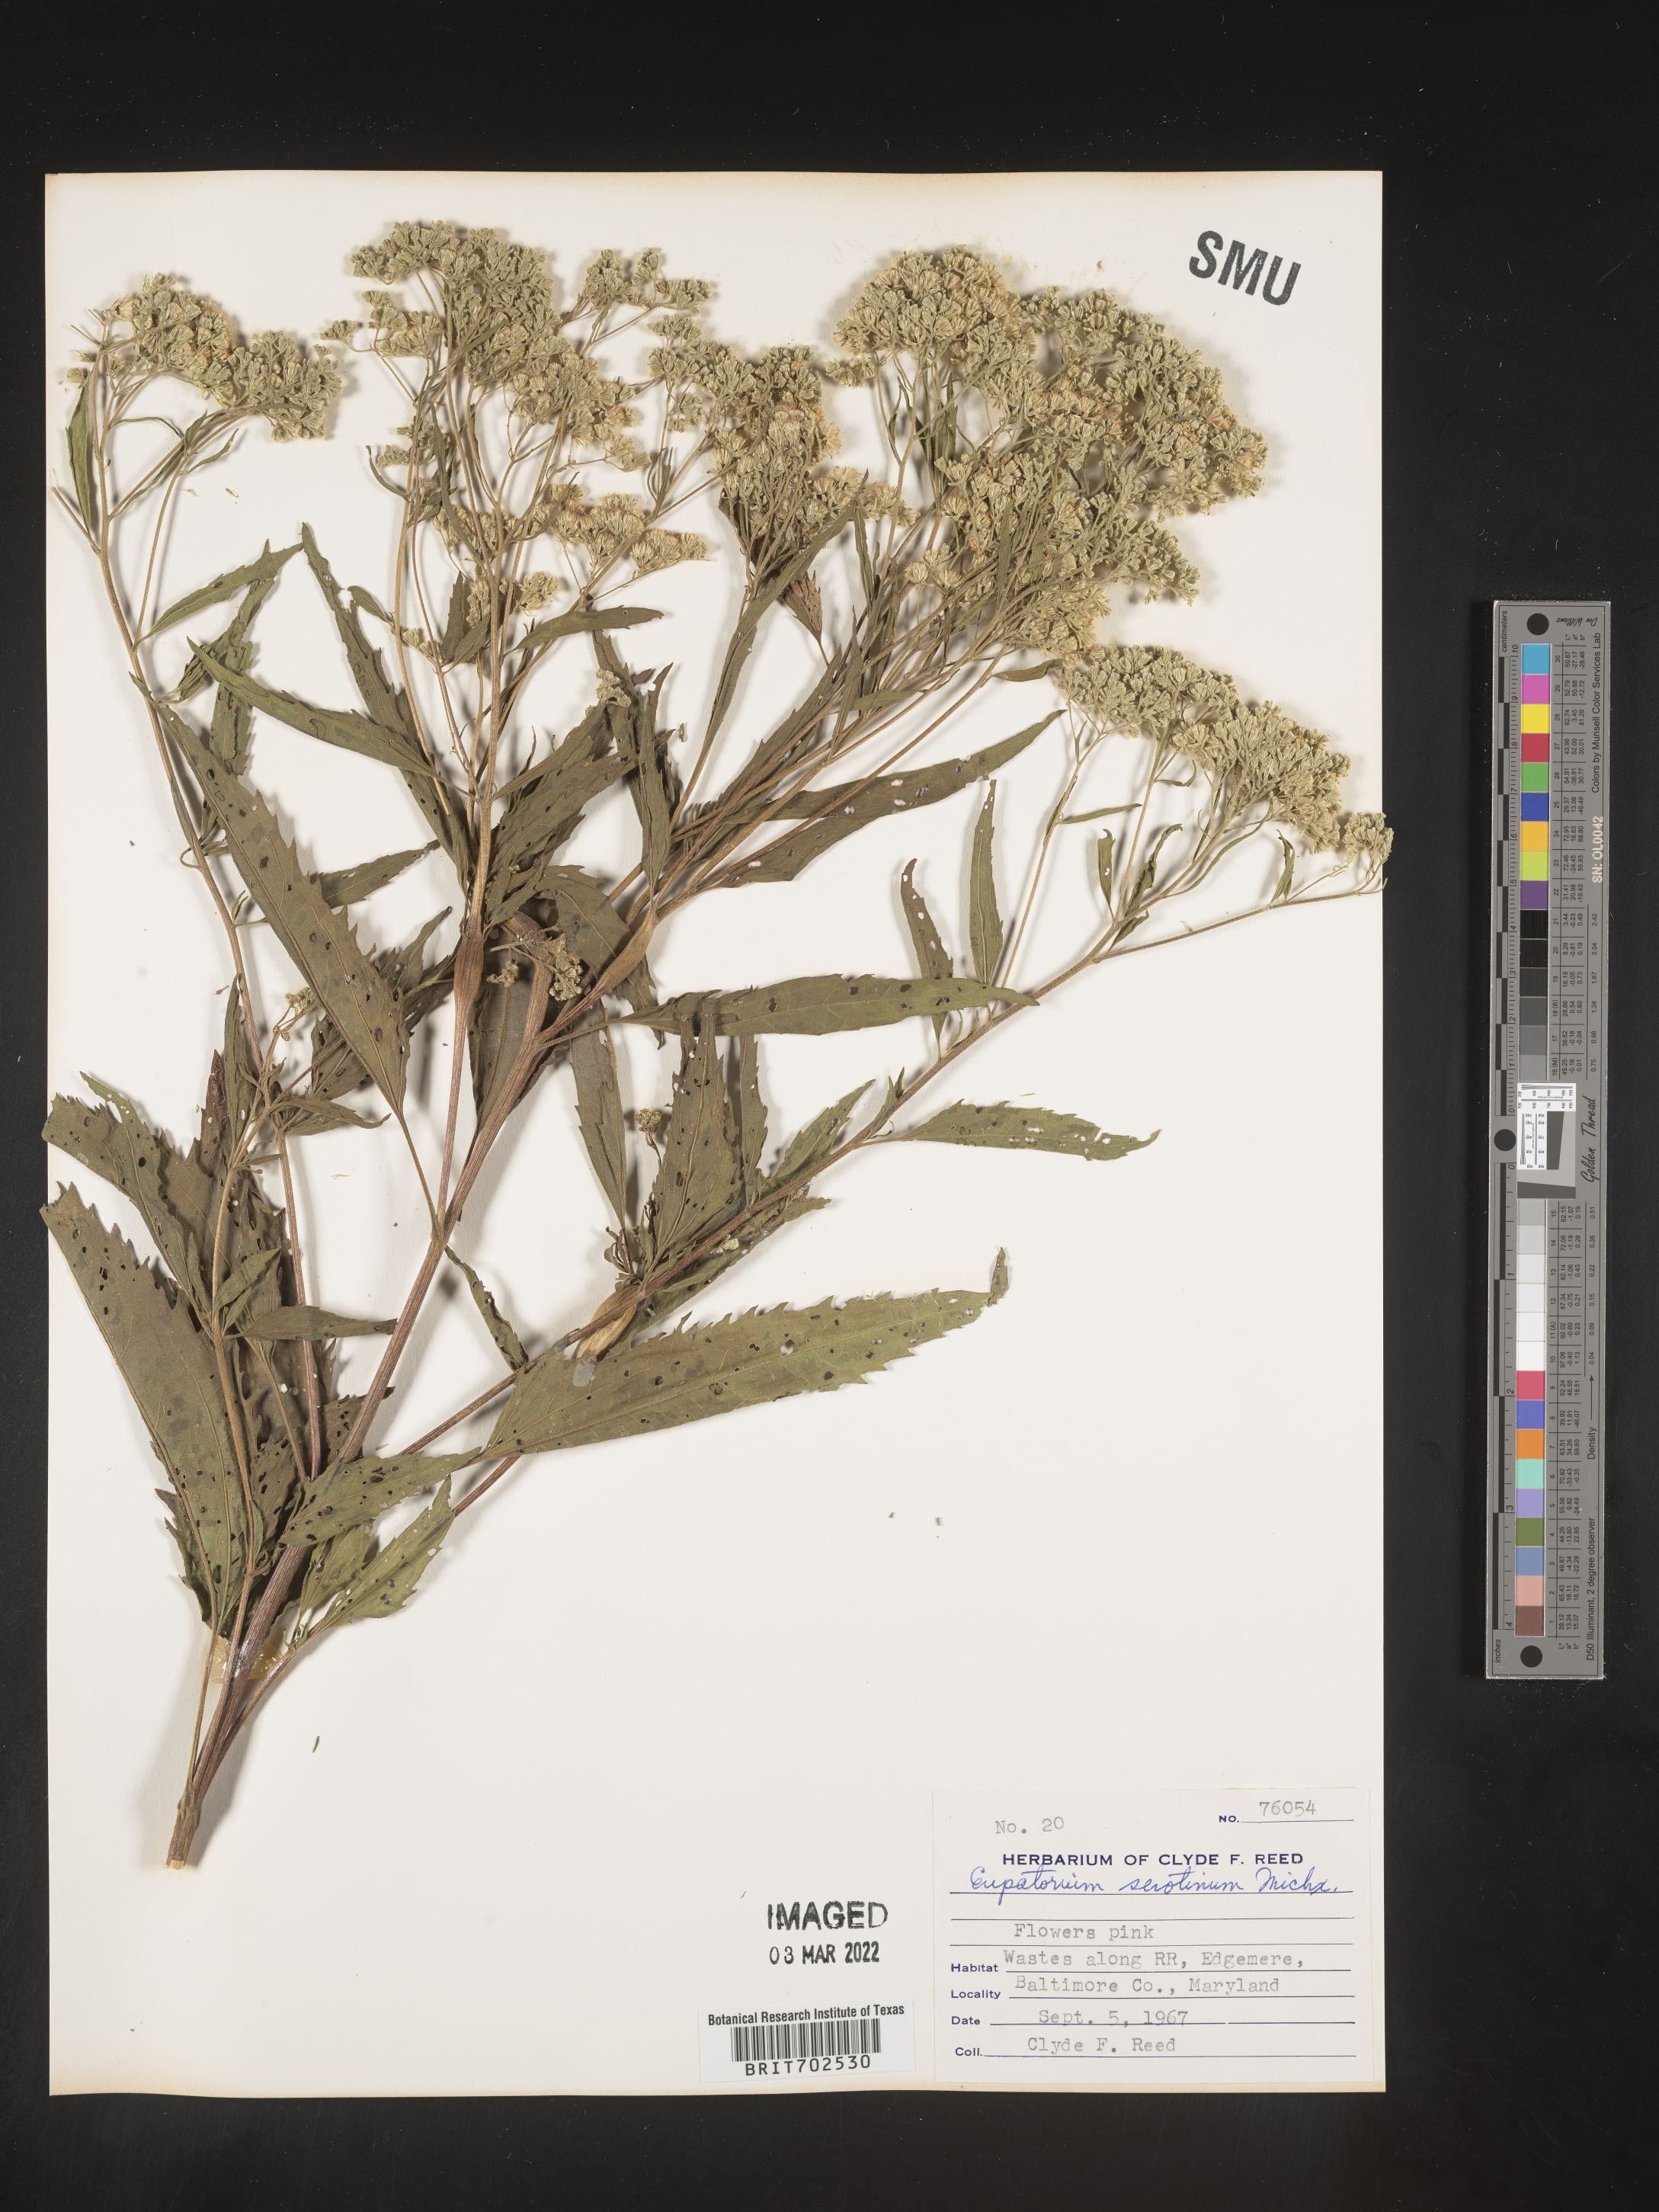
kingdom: Plantae
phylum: Tracheophyta
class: Magnoliopsida
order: Asterales
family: Asteraceae
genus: Eupatorium
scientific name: Eupatorium serotinum
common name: Late boneset
